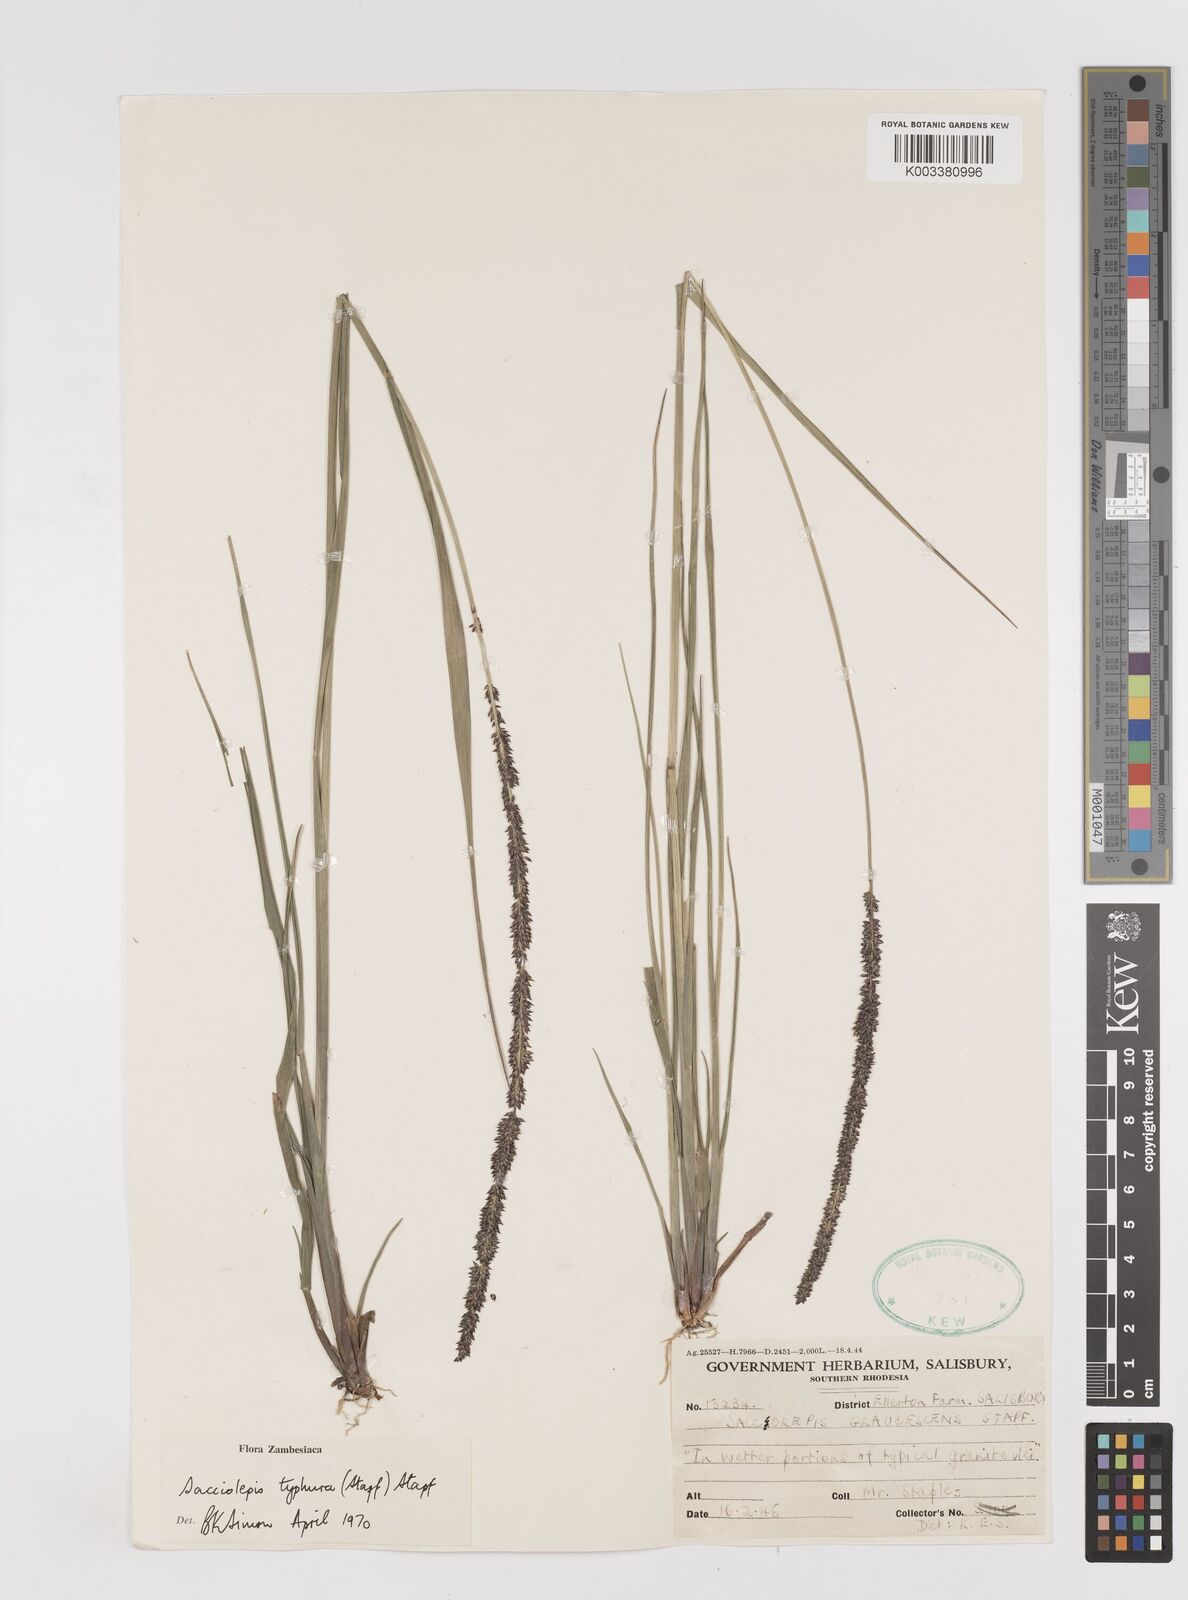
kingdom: Plantae
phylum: Tracheophyta
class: Liliopsida
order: Poales
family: Poaceae
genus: Sacciolepis
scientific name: Sacciolepis typhura
